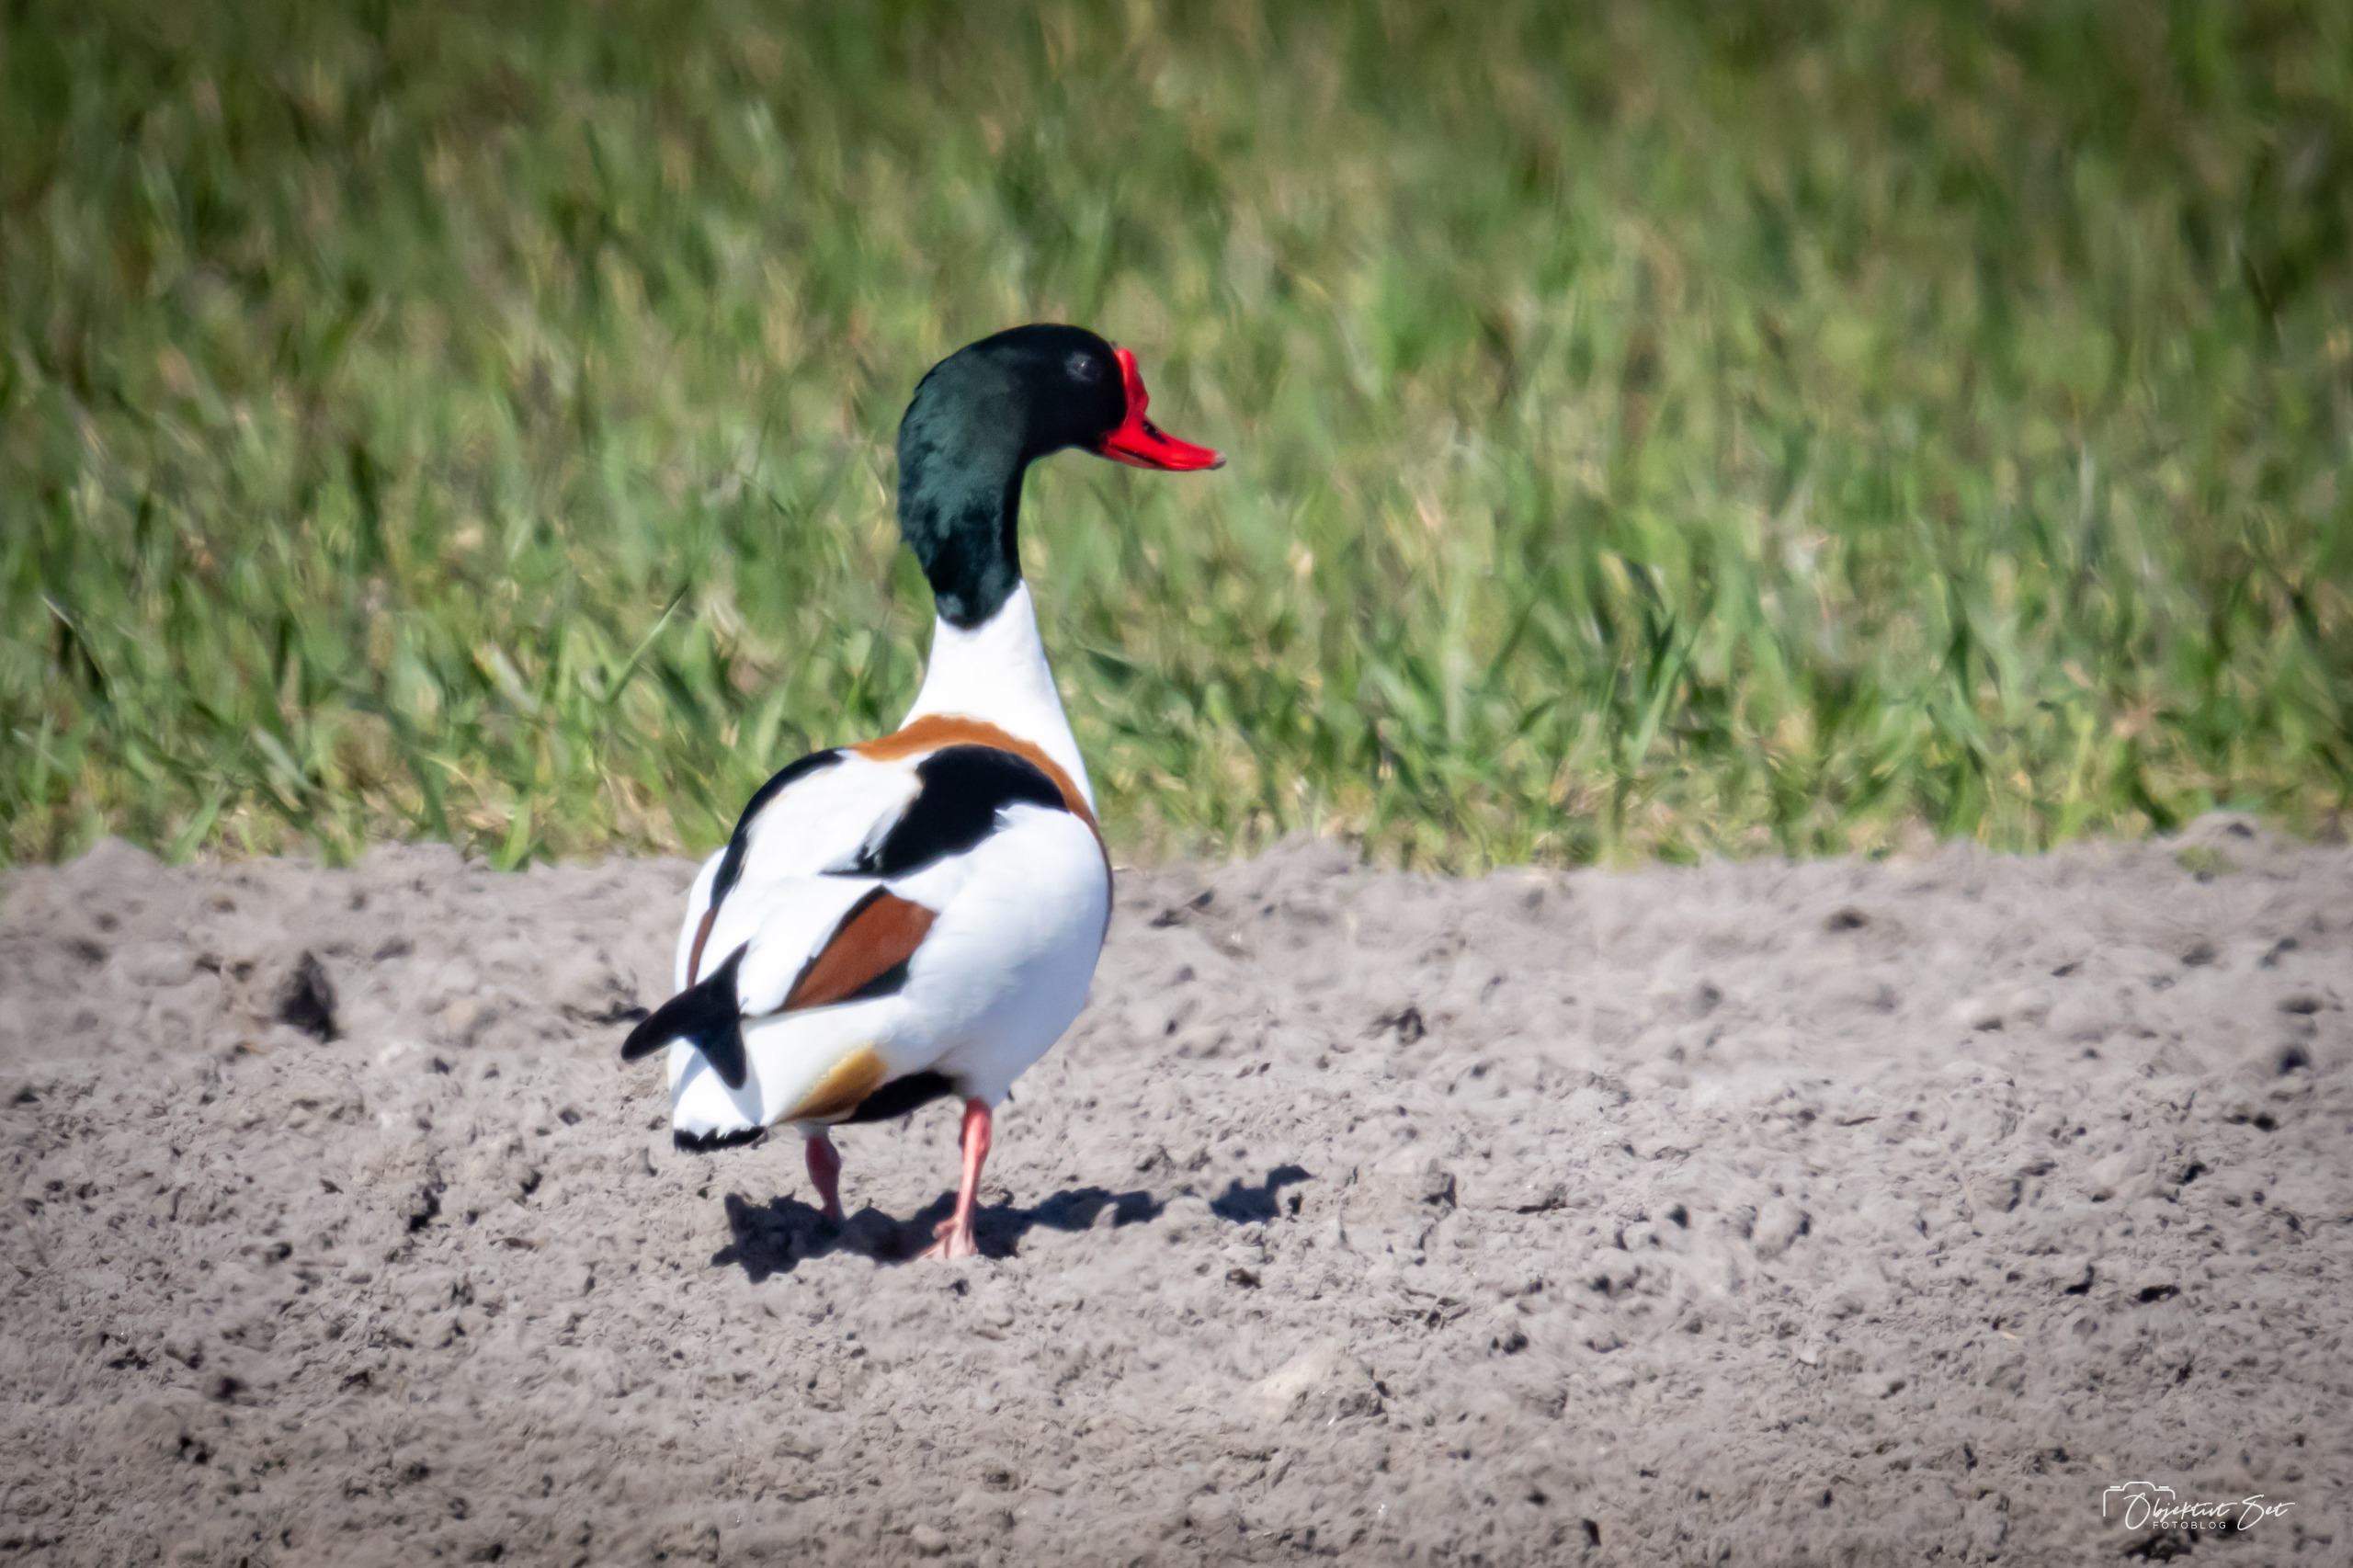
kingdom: Animalia
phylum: Chordata
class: Aves
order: Anseriformes
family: Anatidae
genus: Tadorna
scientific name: Tadorna tadorna
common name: Gravand
